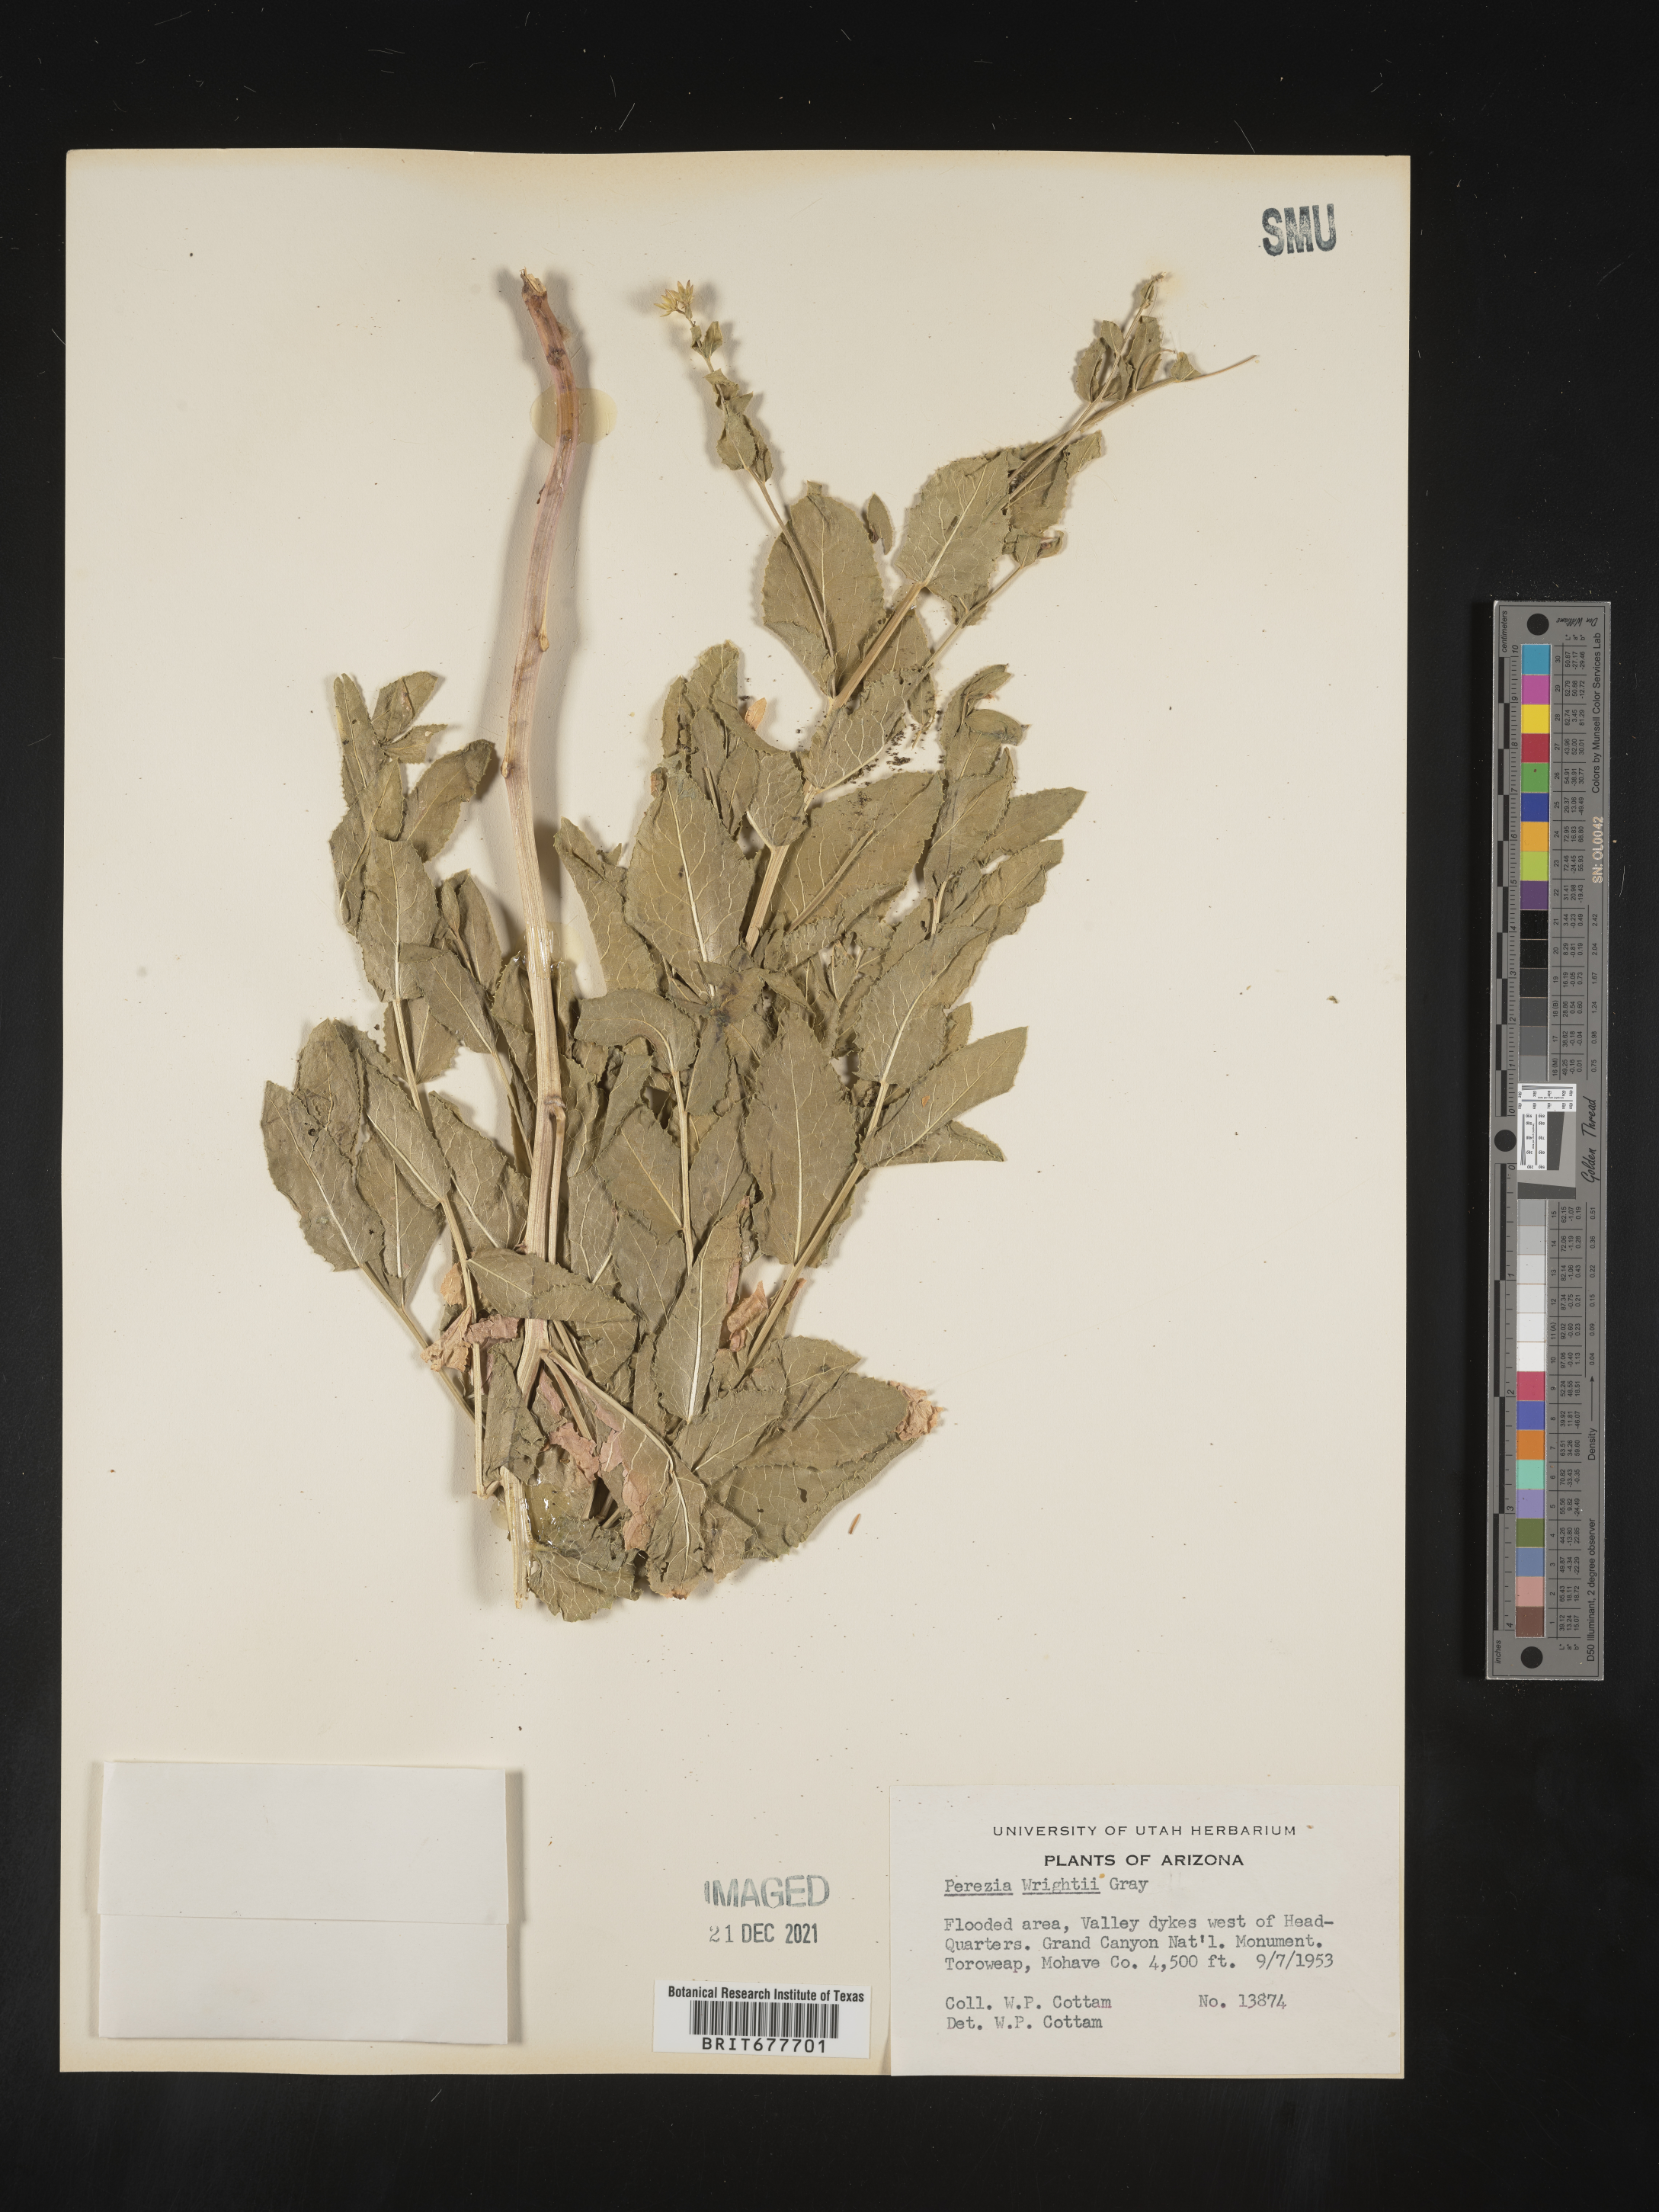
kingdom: Plantae
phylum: Tracheophyta
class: Magnoliopsida
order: Asterales
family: Asteraceae
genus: Perezia
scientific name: Perezia
